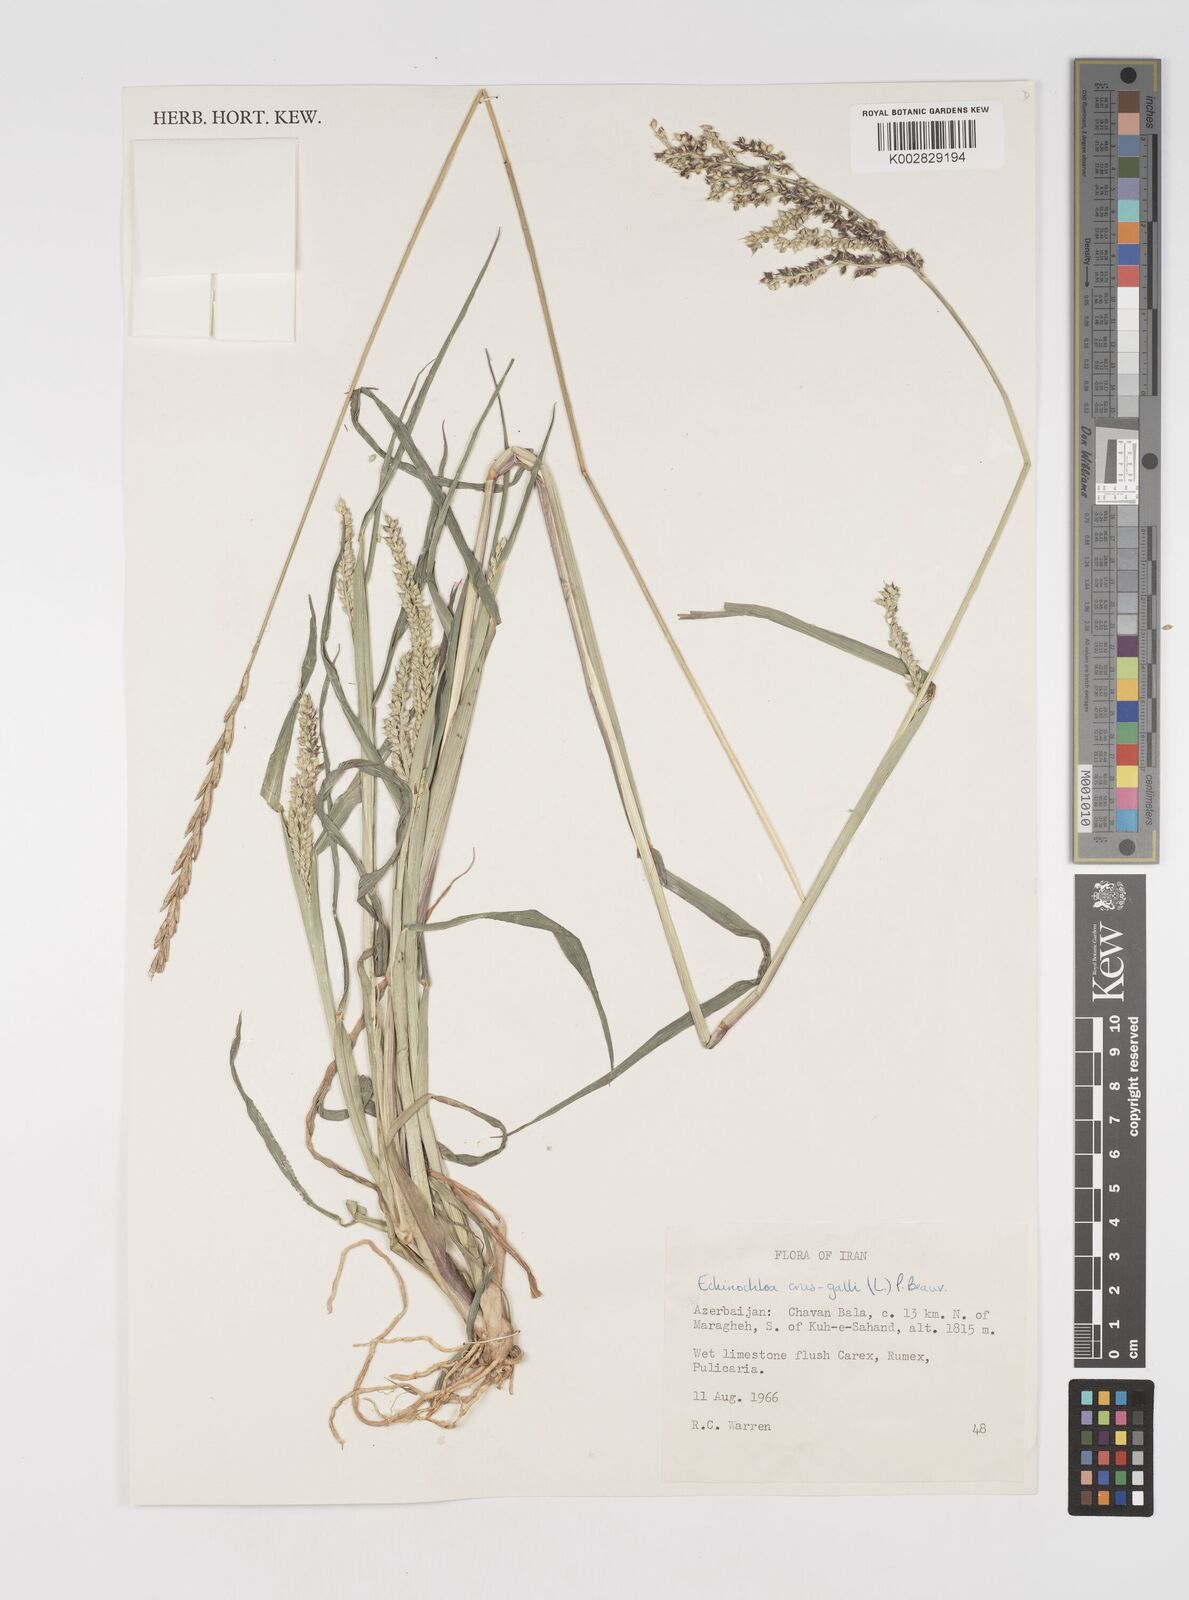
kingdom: Plantae
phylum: Tracheophyta
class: Liliopsida
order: Poales
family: Poaceae
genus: Echinochloa
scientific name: Echinochloa crus-galli
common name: Cockspur
